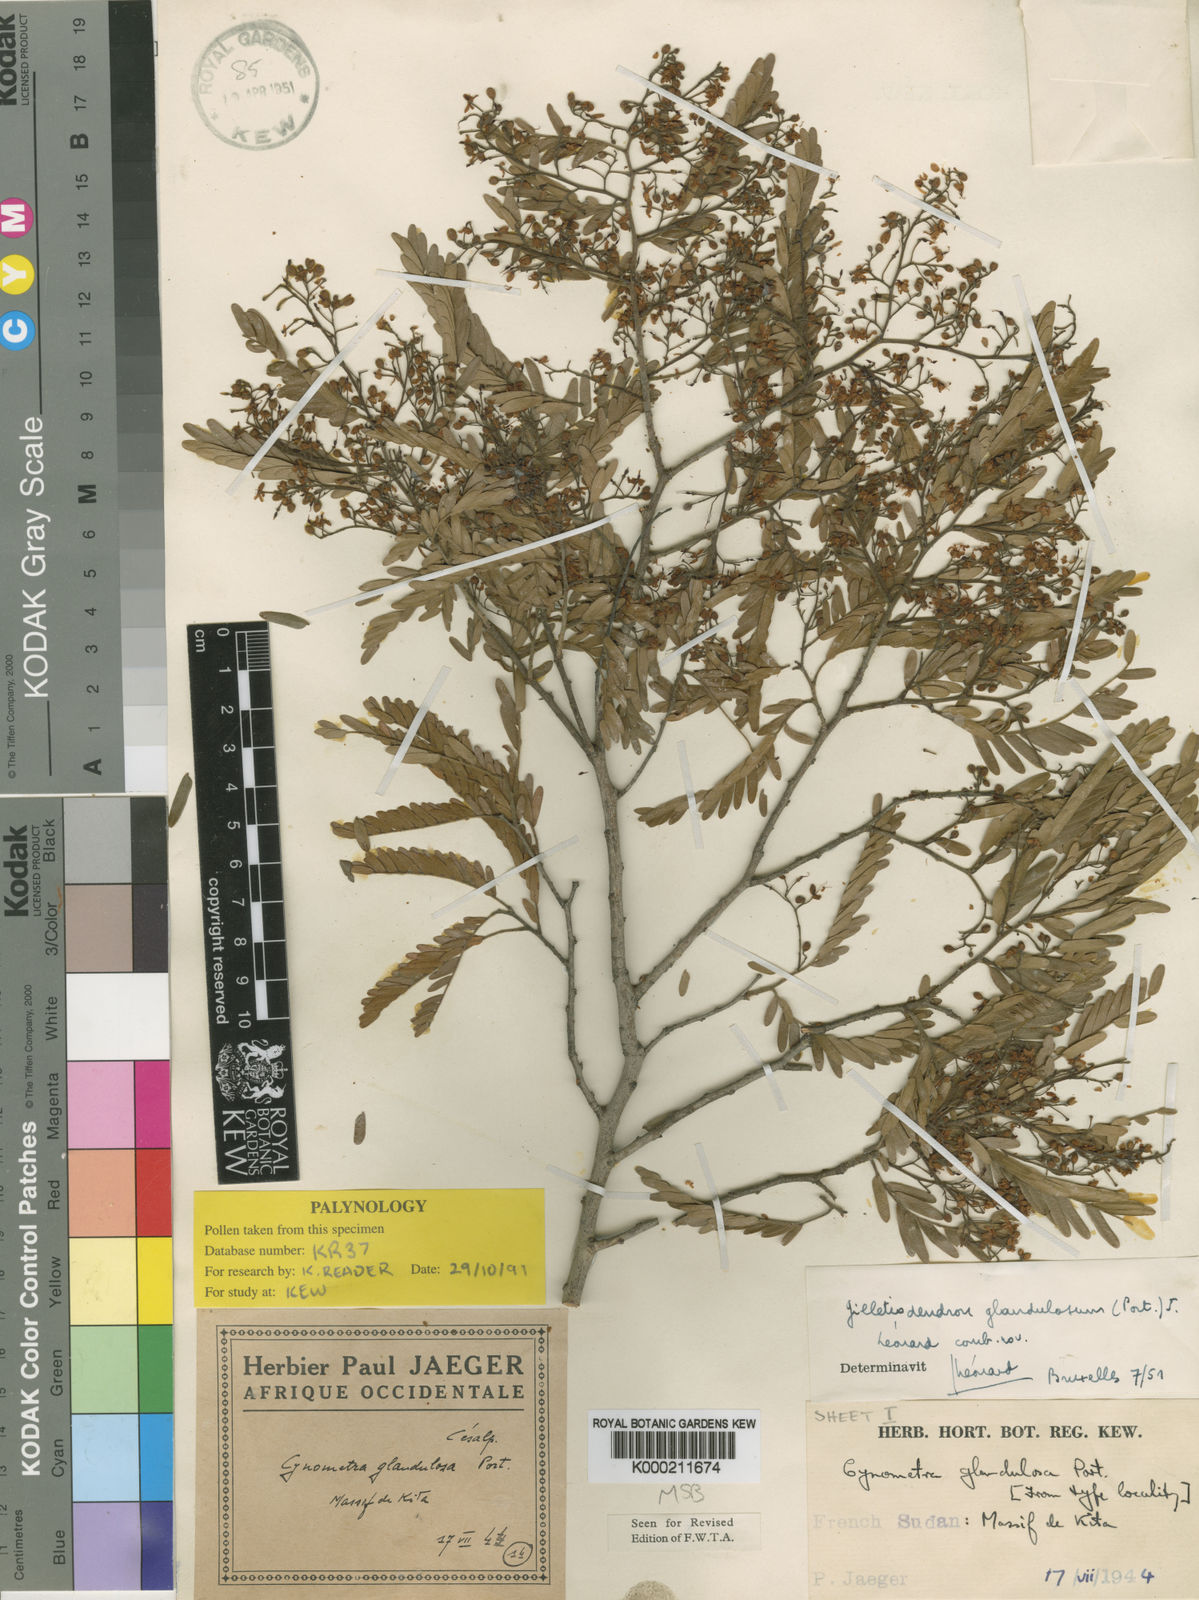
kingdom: Plantae
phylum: Tracheophyta
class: Magnoliopsida
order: Fabales
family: Fabaceae
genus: Gilletiodendron
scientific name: Gilletiodendron
